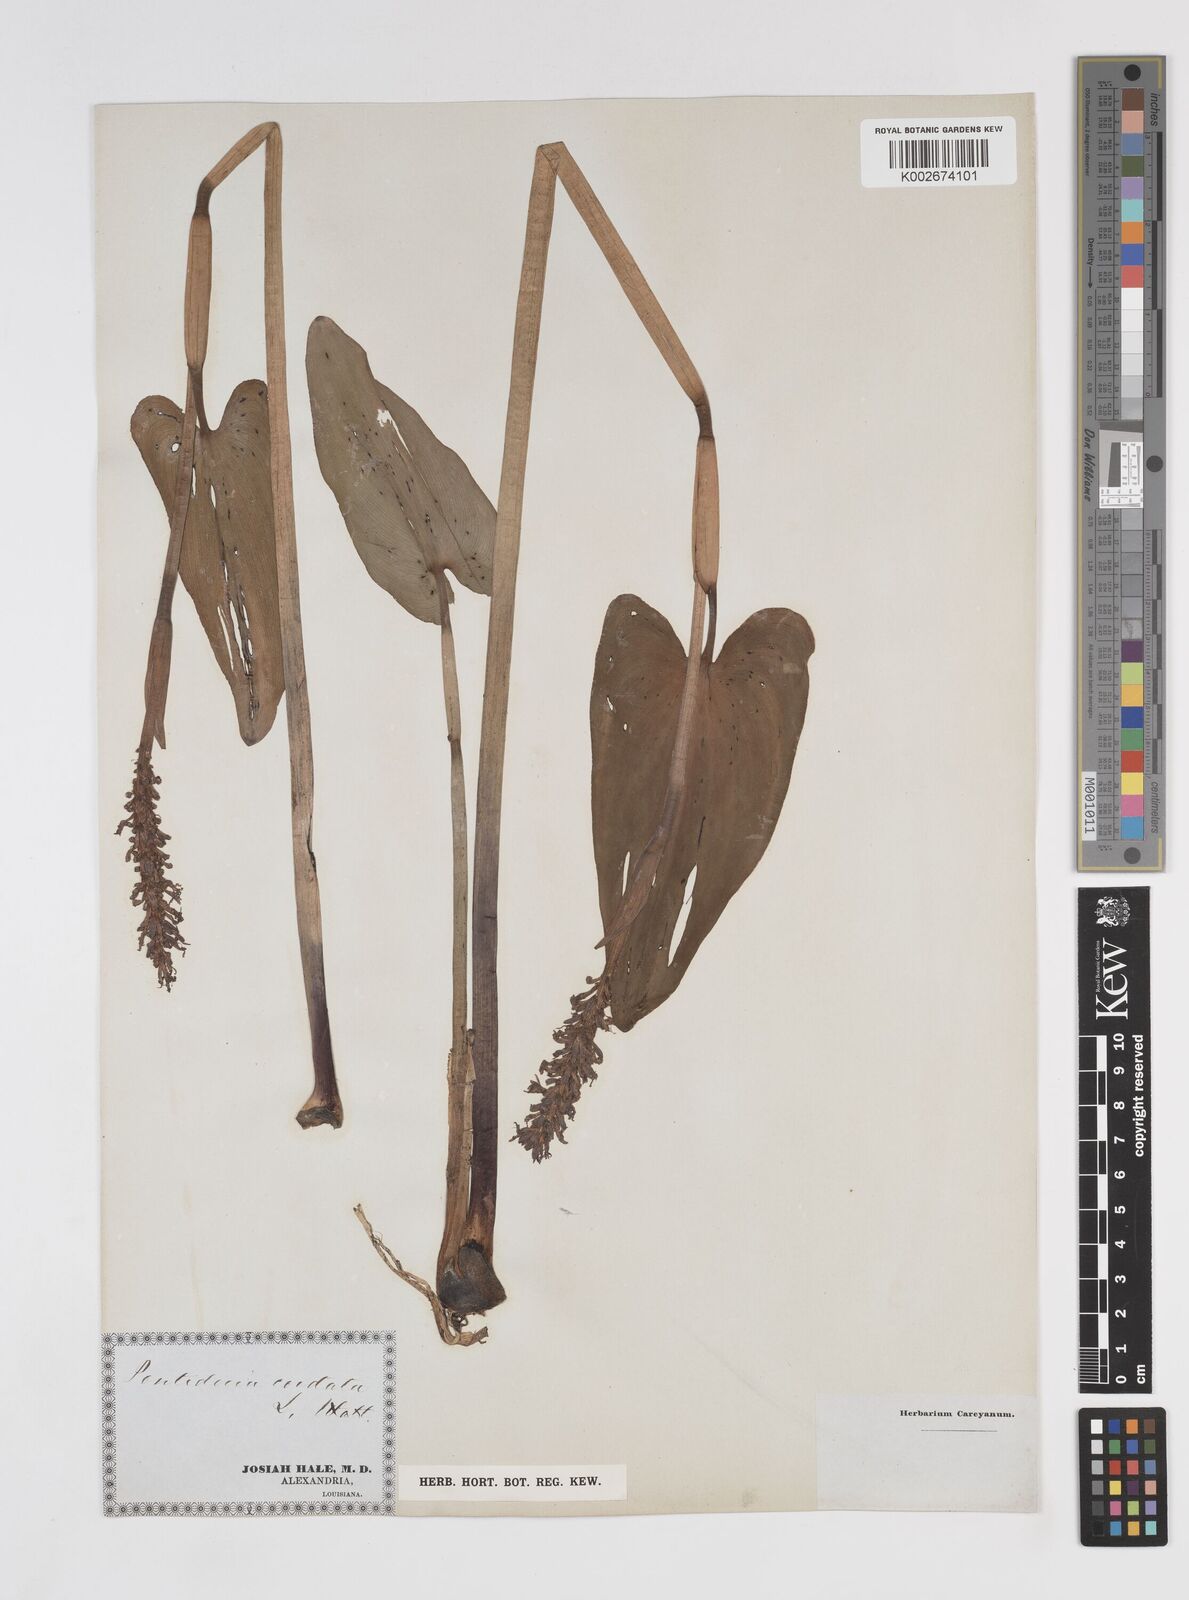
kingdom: Plantae
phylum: Tracheophyta
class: Liliopsida
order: Commelinales
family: Pontederiaceae
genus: Pontederia
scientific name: Pontederia cordata
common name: Pickerelweed
